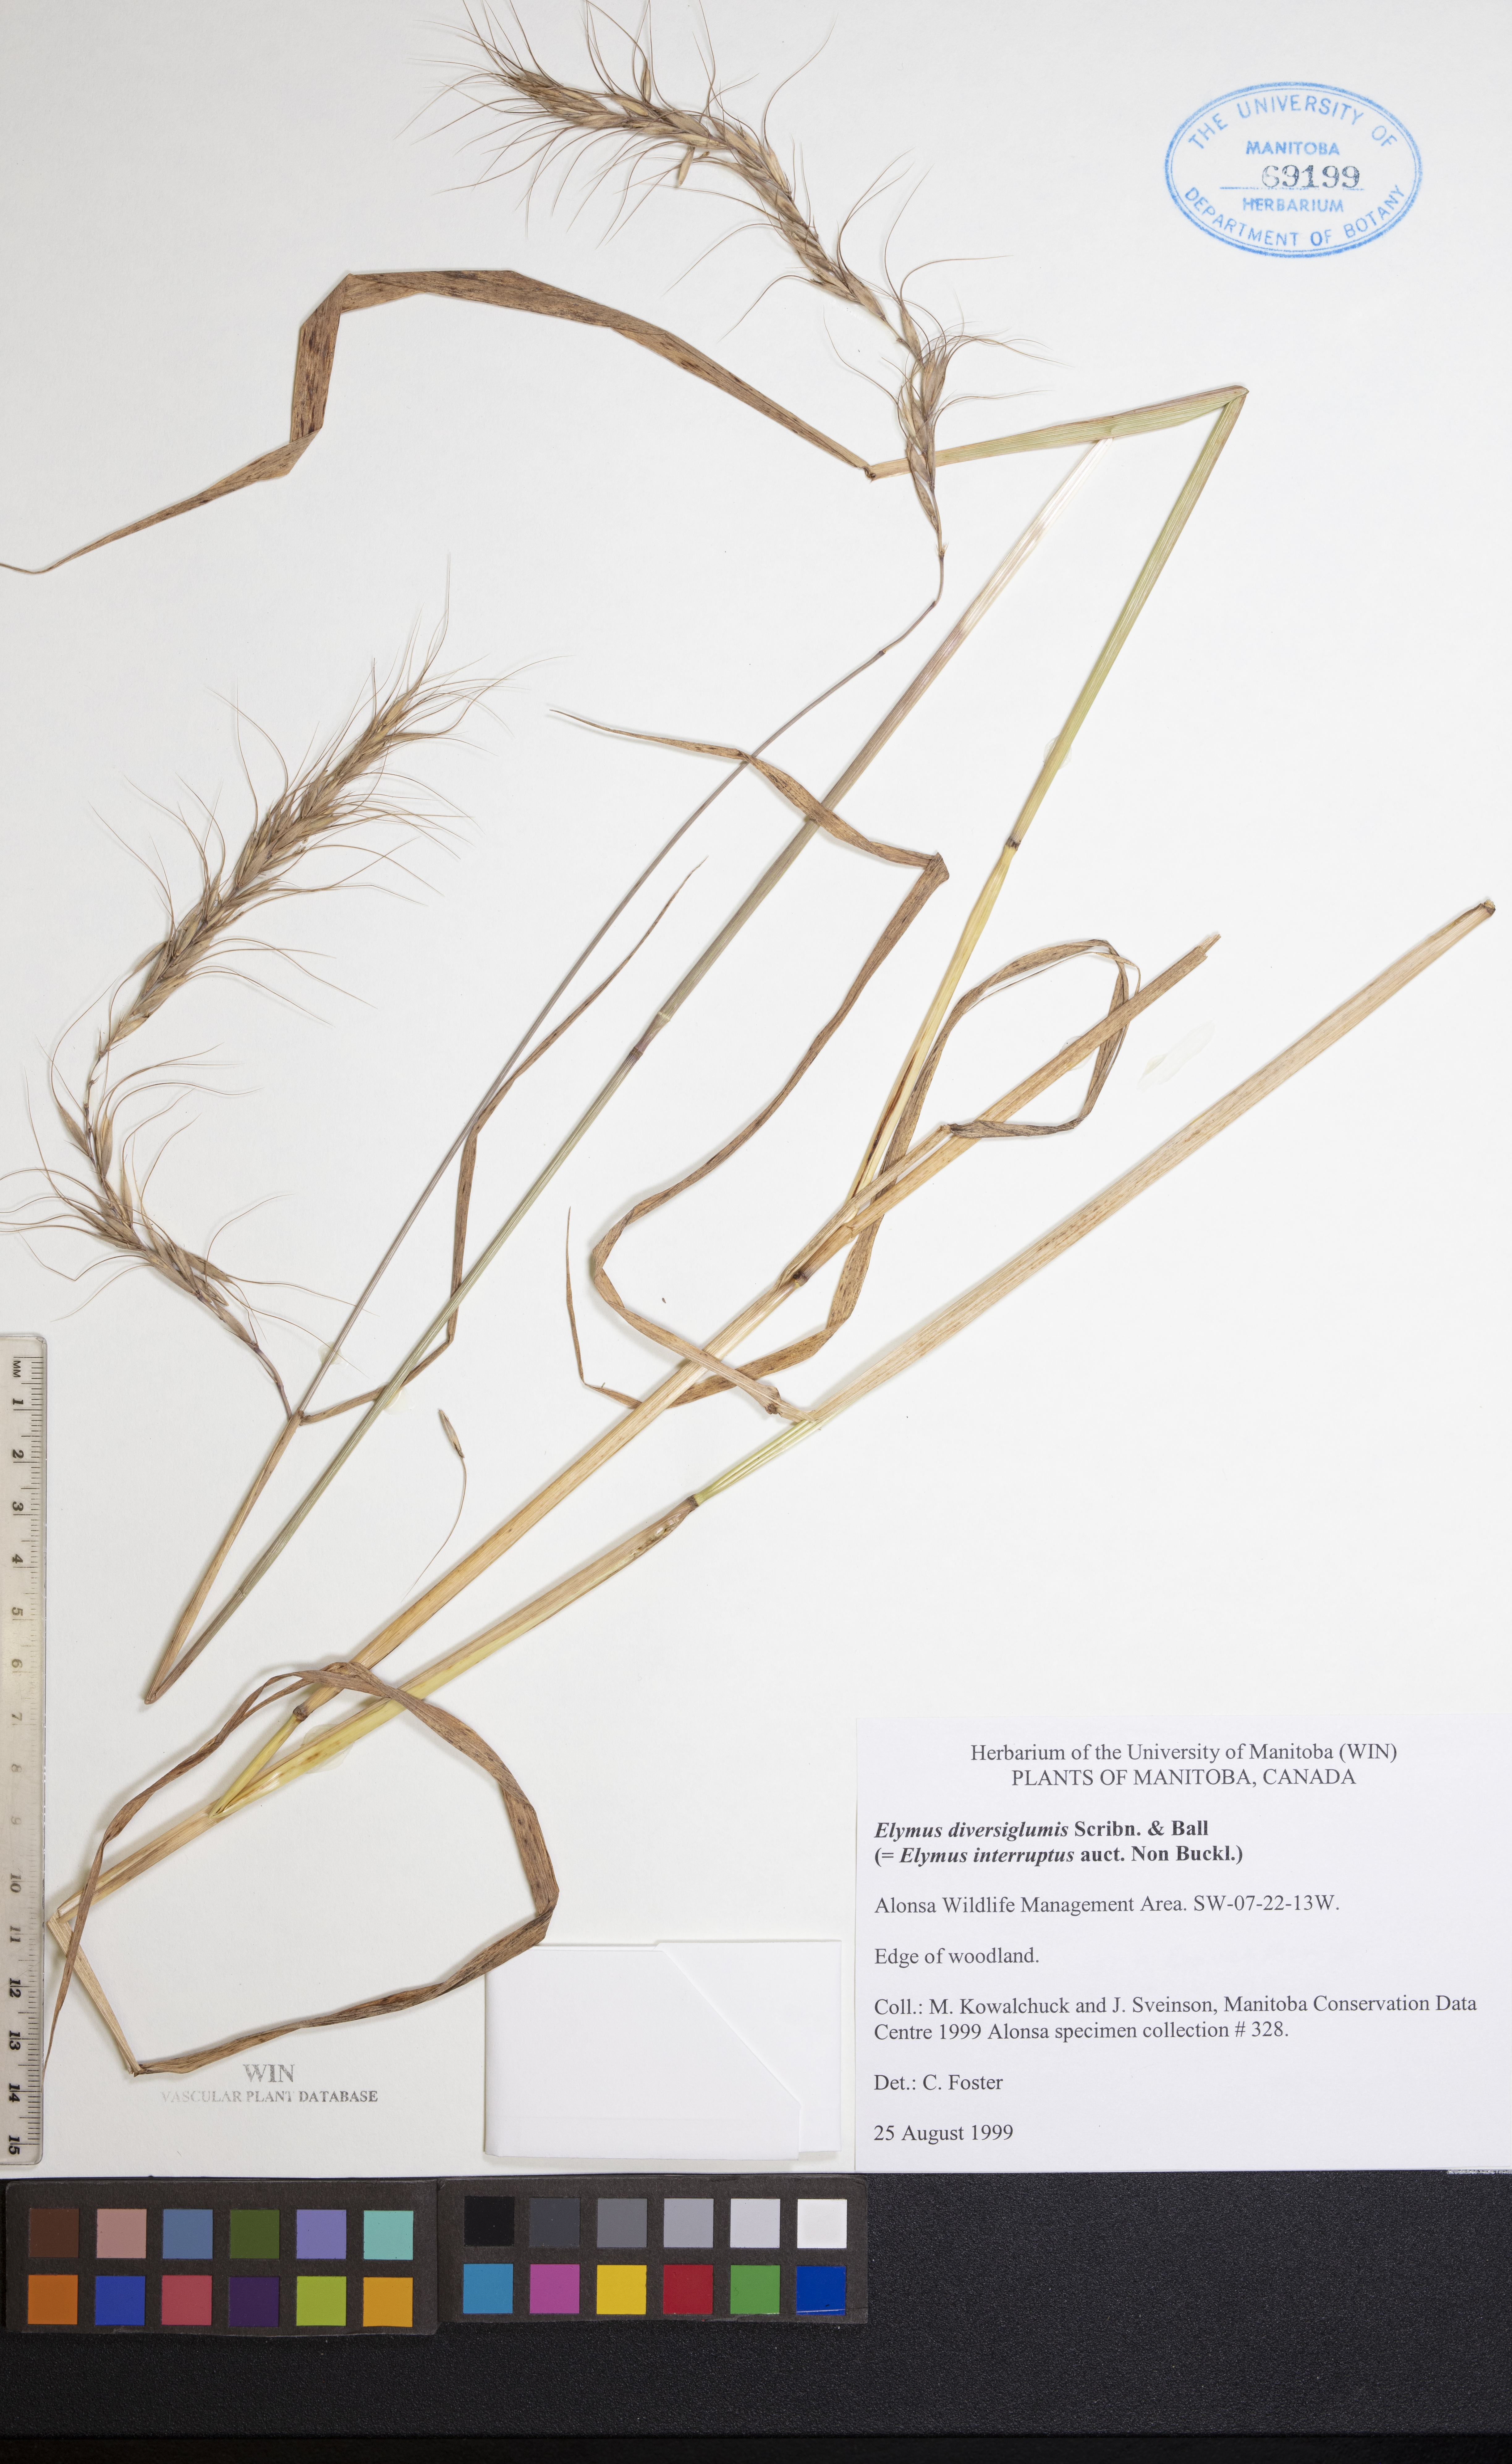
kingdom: Plantae
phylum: Tracheophyta
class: Liliopsida
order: Poales
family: Poaceae
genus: Elymus
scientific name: Elymus diversiglumis
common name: Minnesota wildrye
